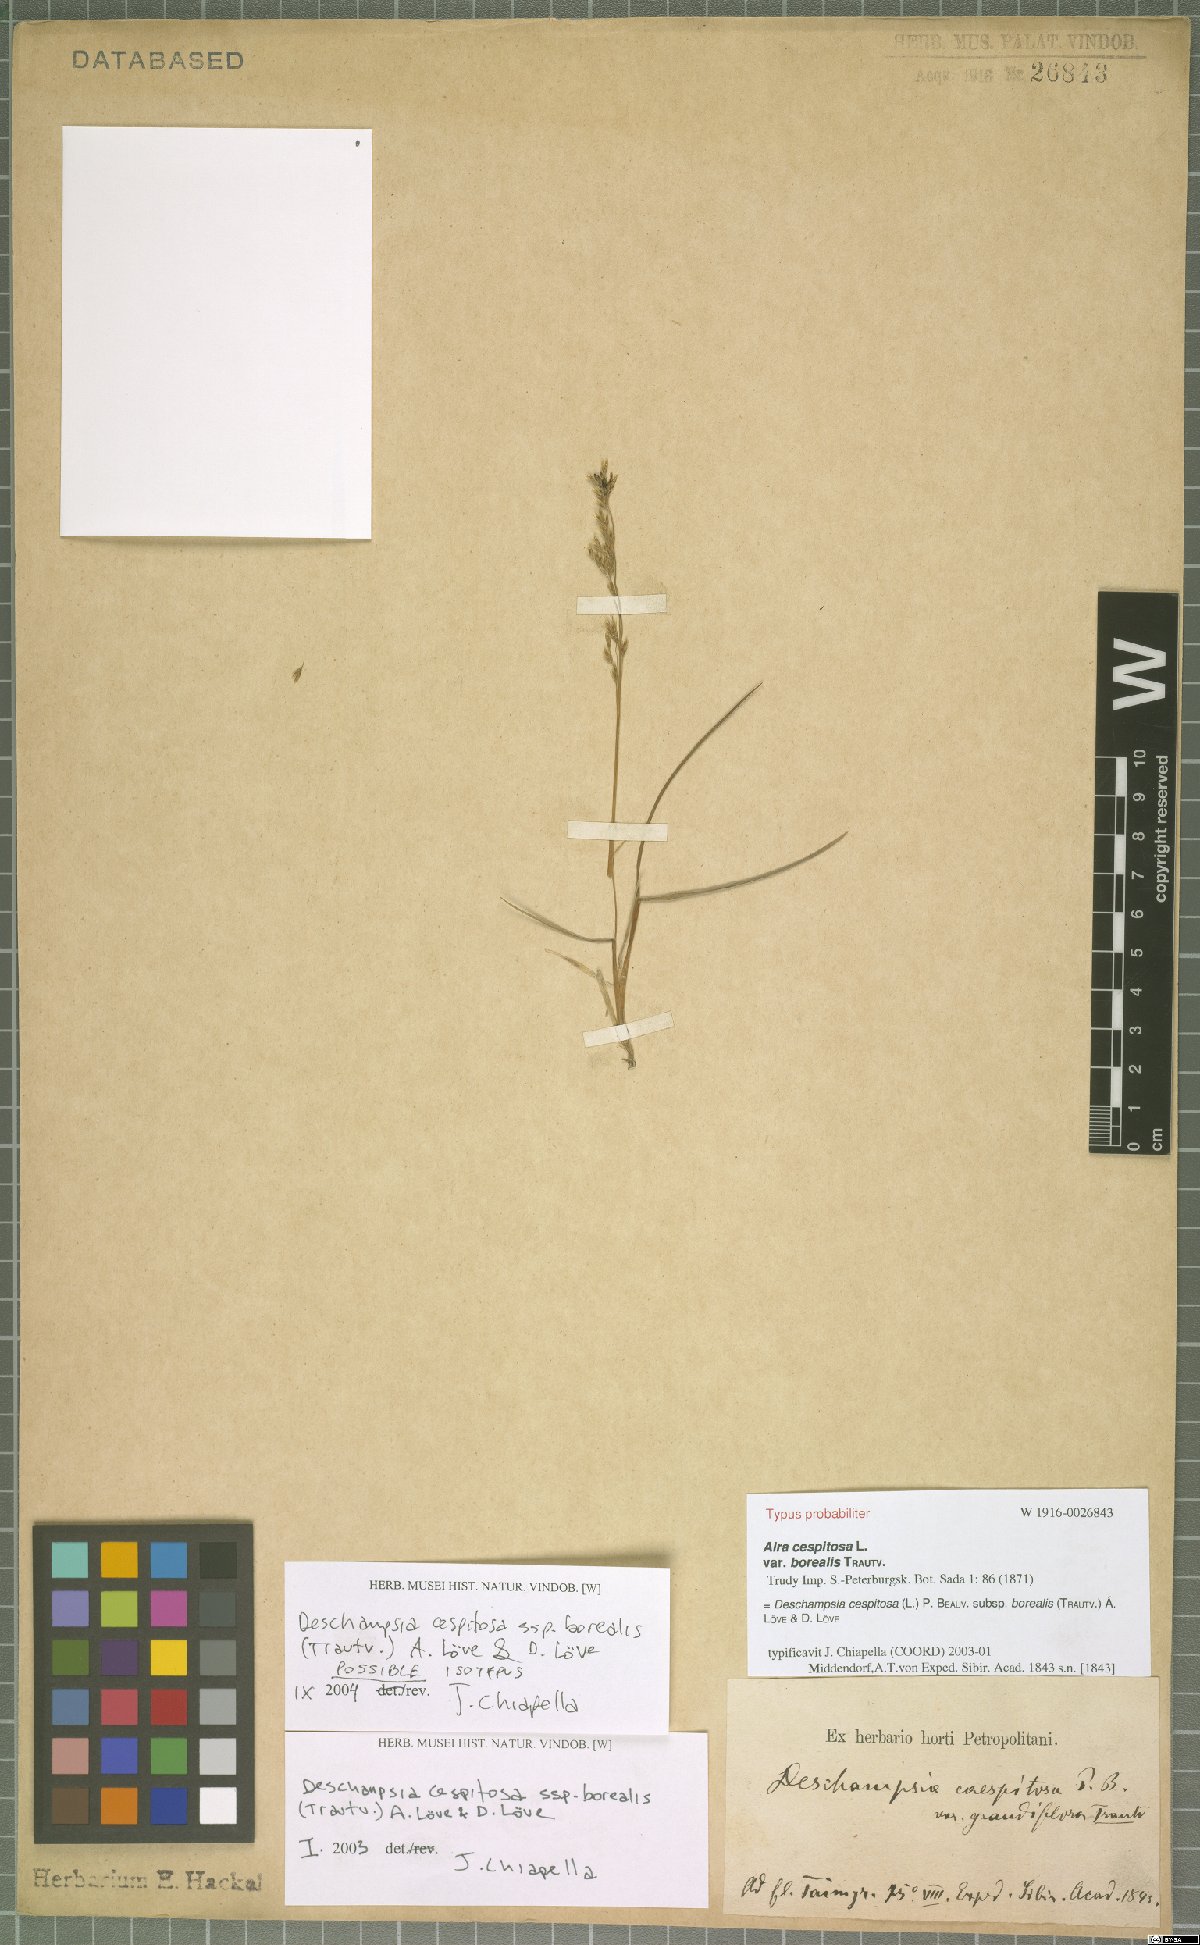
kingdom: Plantae
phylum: Tracheophyta
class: Liliopsida
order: Poales
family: Poaceae
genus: Deschampsia
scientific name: Deschampsia cespitosa
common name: Tufted hair-grass
